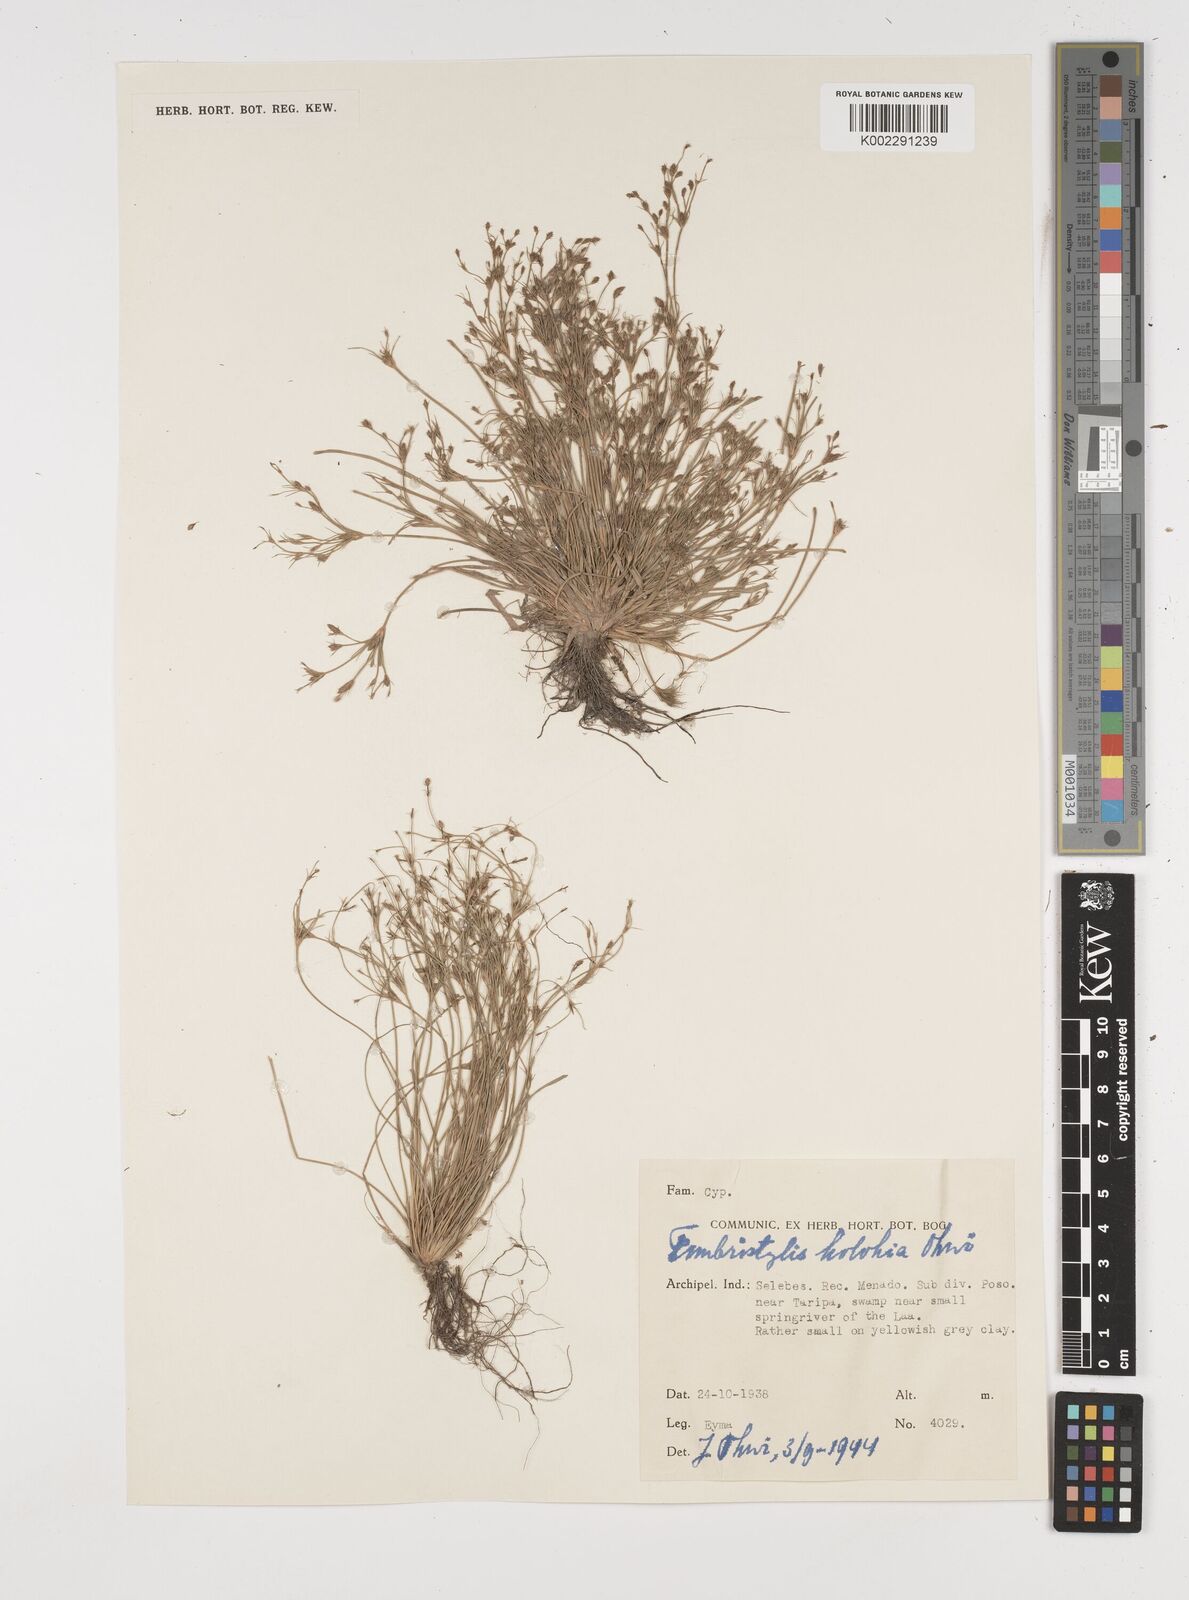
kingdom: Plantae
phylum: Tracheophyta
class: Liliopsida
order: Poales
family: Cyperaceae
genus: Fimbristylis
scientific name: Fimbristylis
